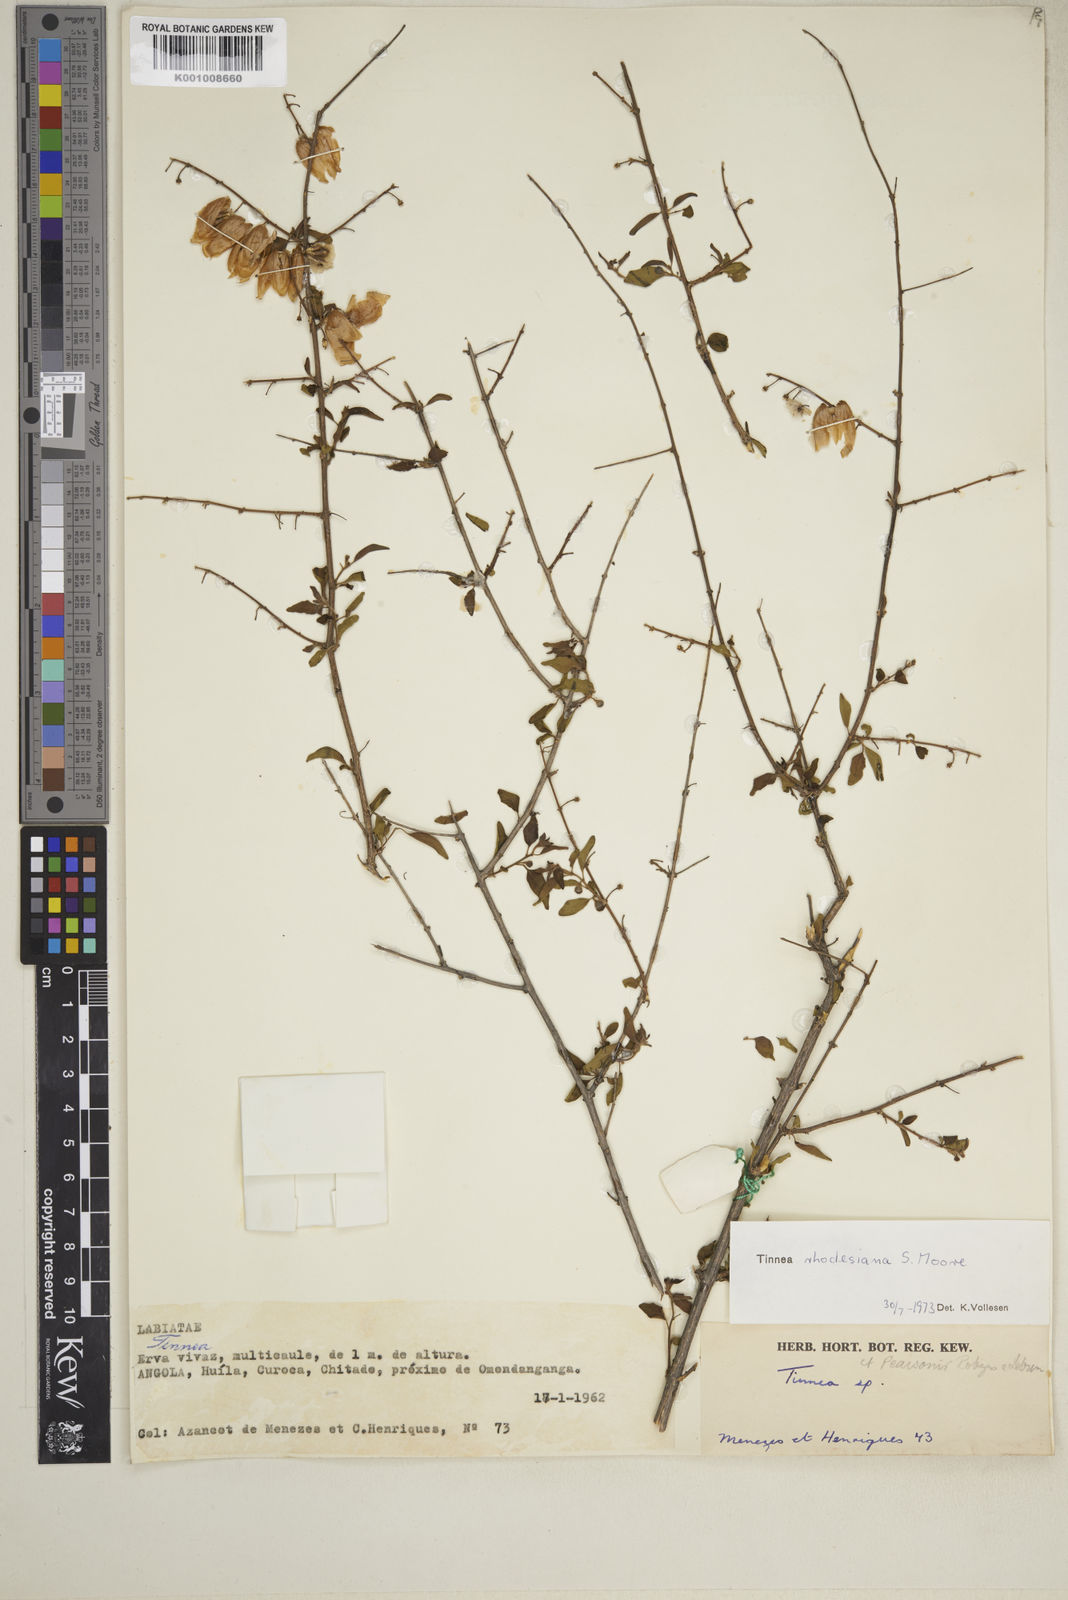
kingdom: Plantae
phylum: Tracheophyta
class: Magnoliopsida
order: Lamiales
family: Lamiaceae
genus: Tinnea
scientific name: Tinnea rhodesiana
